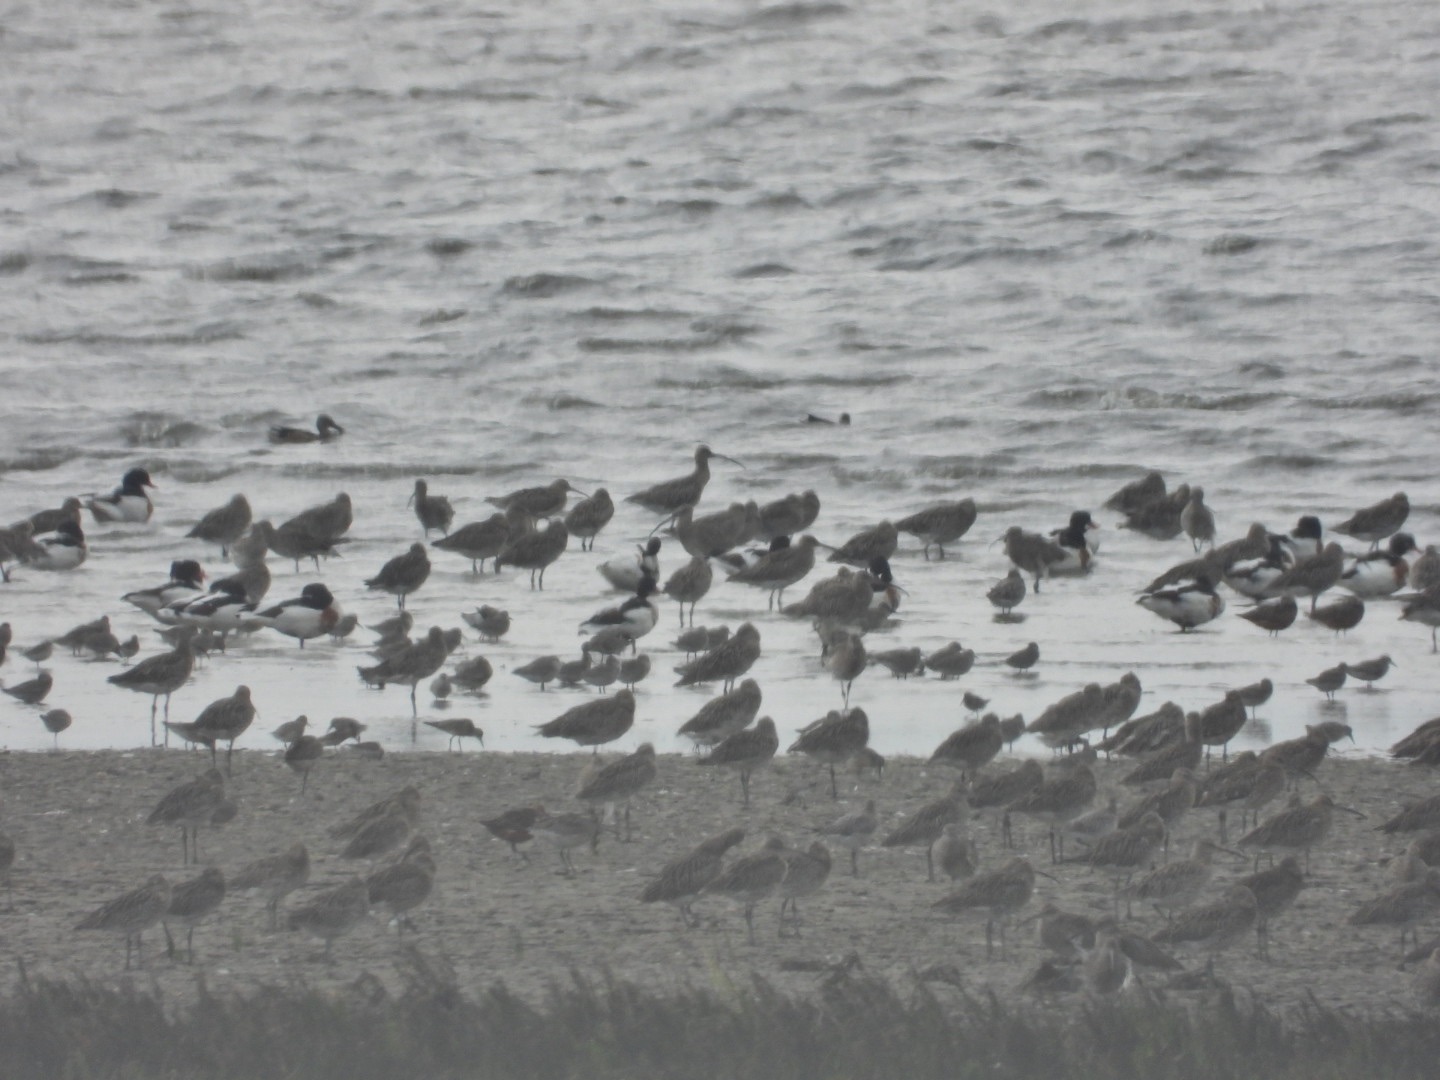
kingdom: Animalia
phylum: Chordata
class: Aves
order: Charadriiformes
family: Scolopacidae
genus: Numenius
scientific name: Numenius arquata
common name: Storspove
